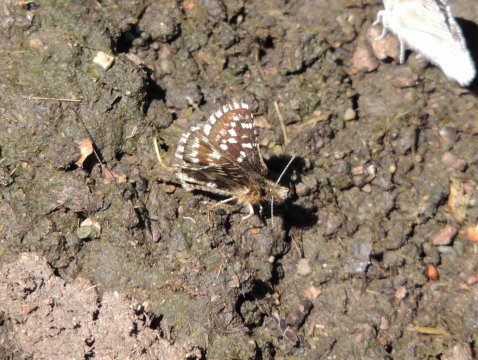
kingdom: Animalia
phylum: Arthropoda
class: Insecta
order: Lepidoptera
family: Hesperiidae
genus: Pyrgus
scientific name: Pyrgus ruralis
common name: Two-banded Checkered-Skipper
